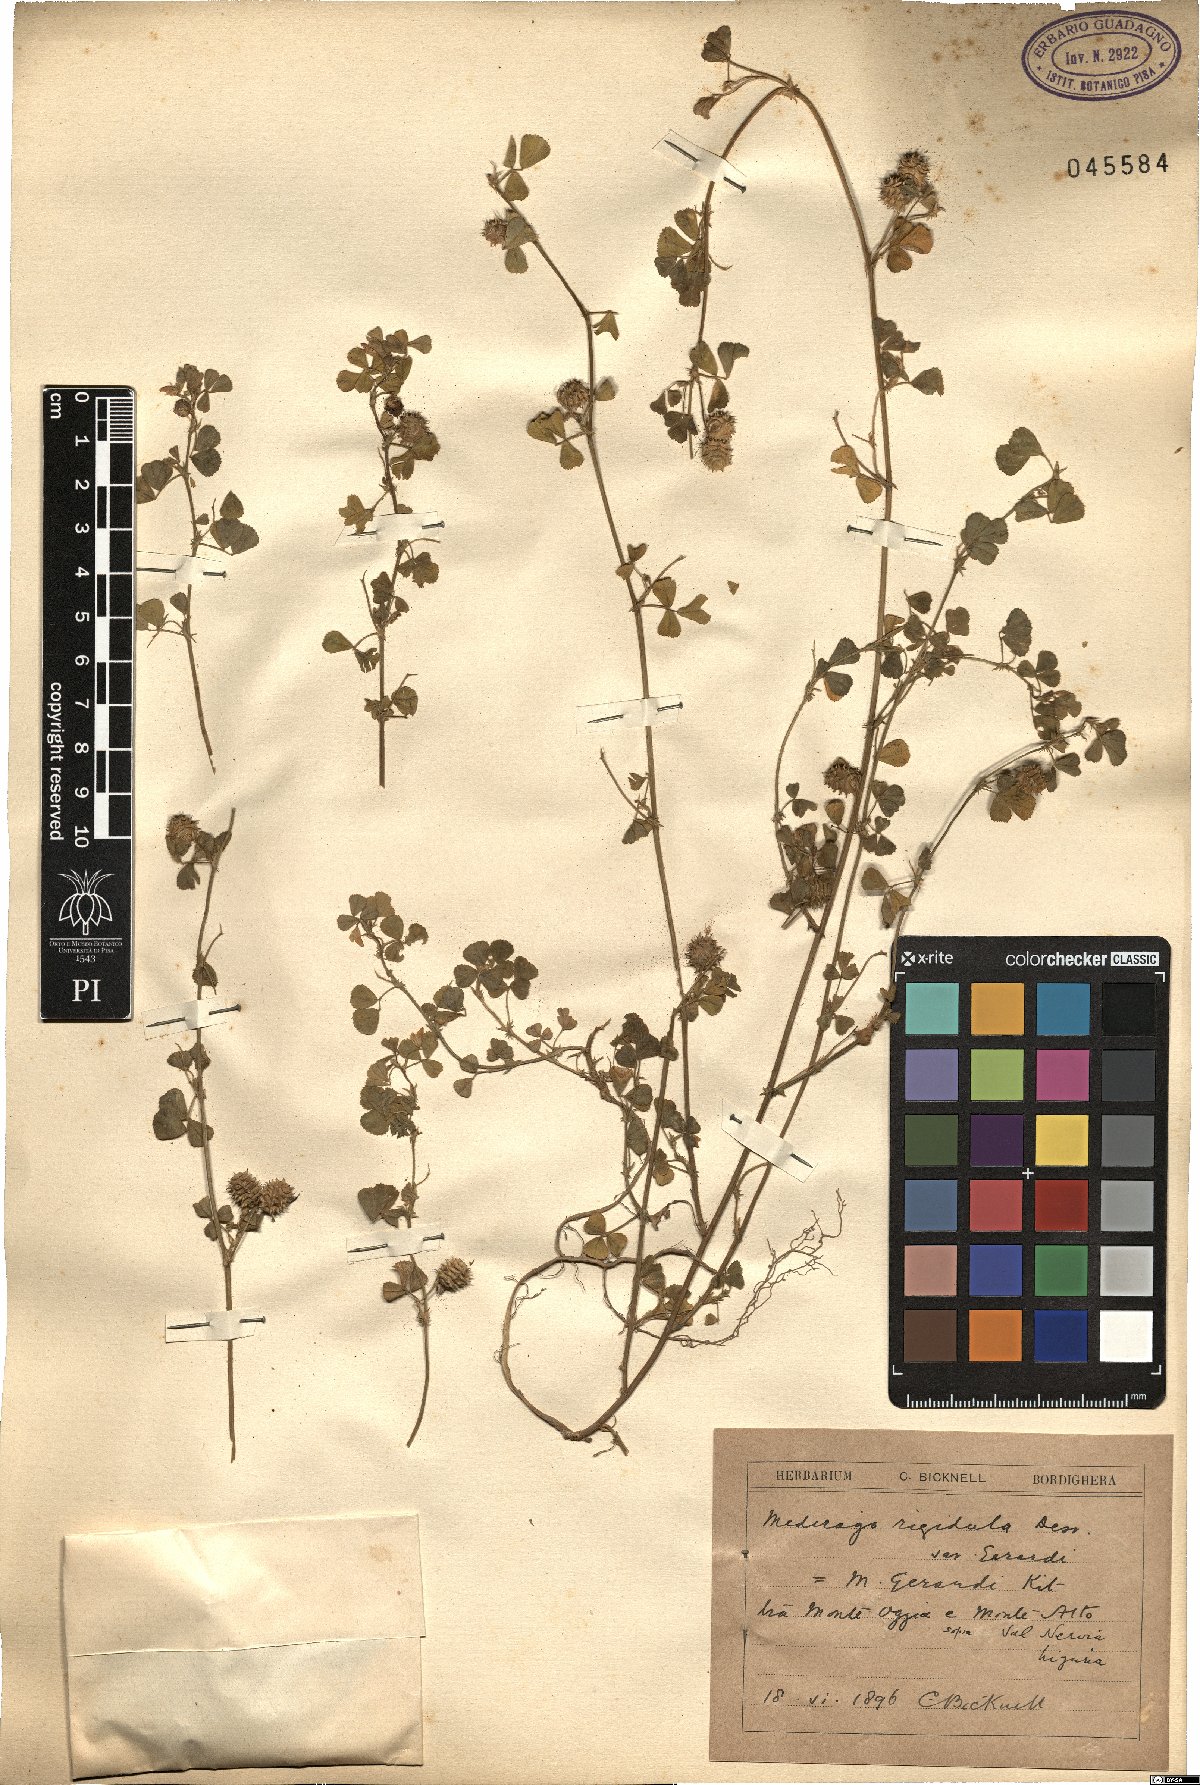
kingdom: Plantae
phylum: Tracheophyta
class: Magnoliopsida
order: Fabales
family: Fabaceae
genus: Medicago
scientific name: Medicago rigidula
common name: Tifton medic
